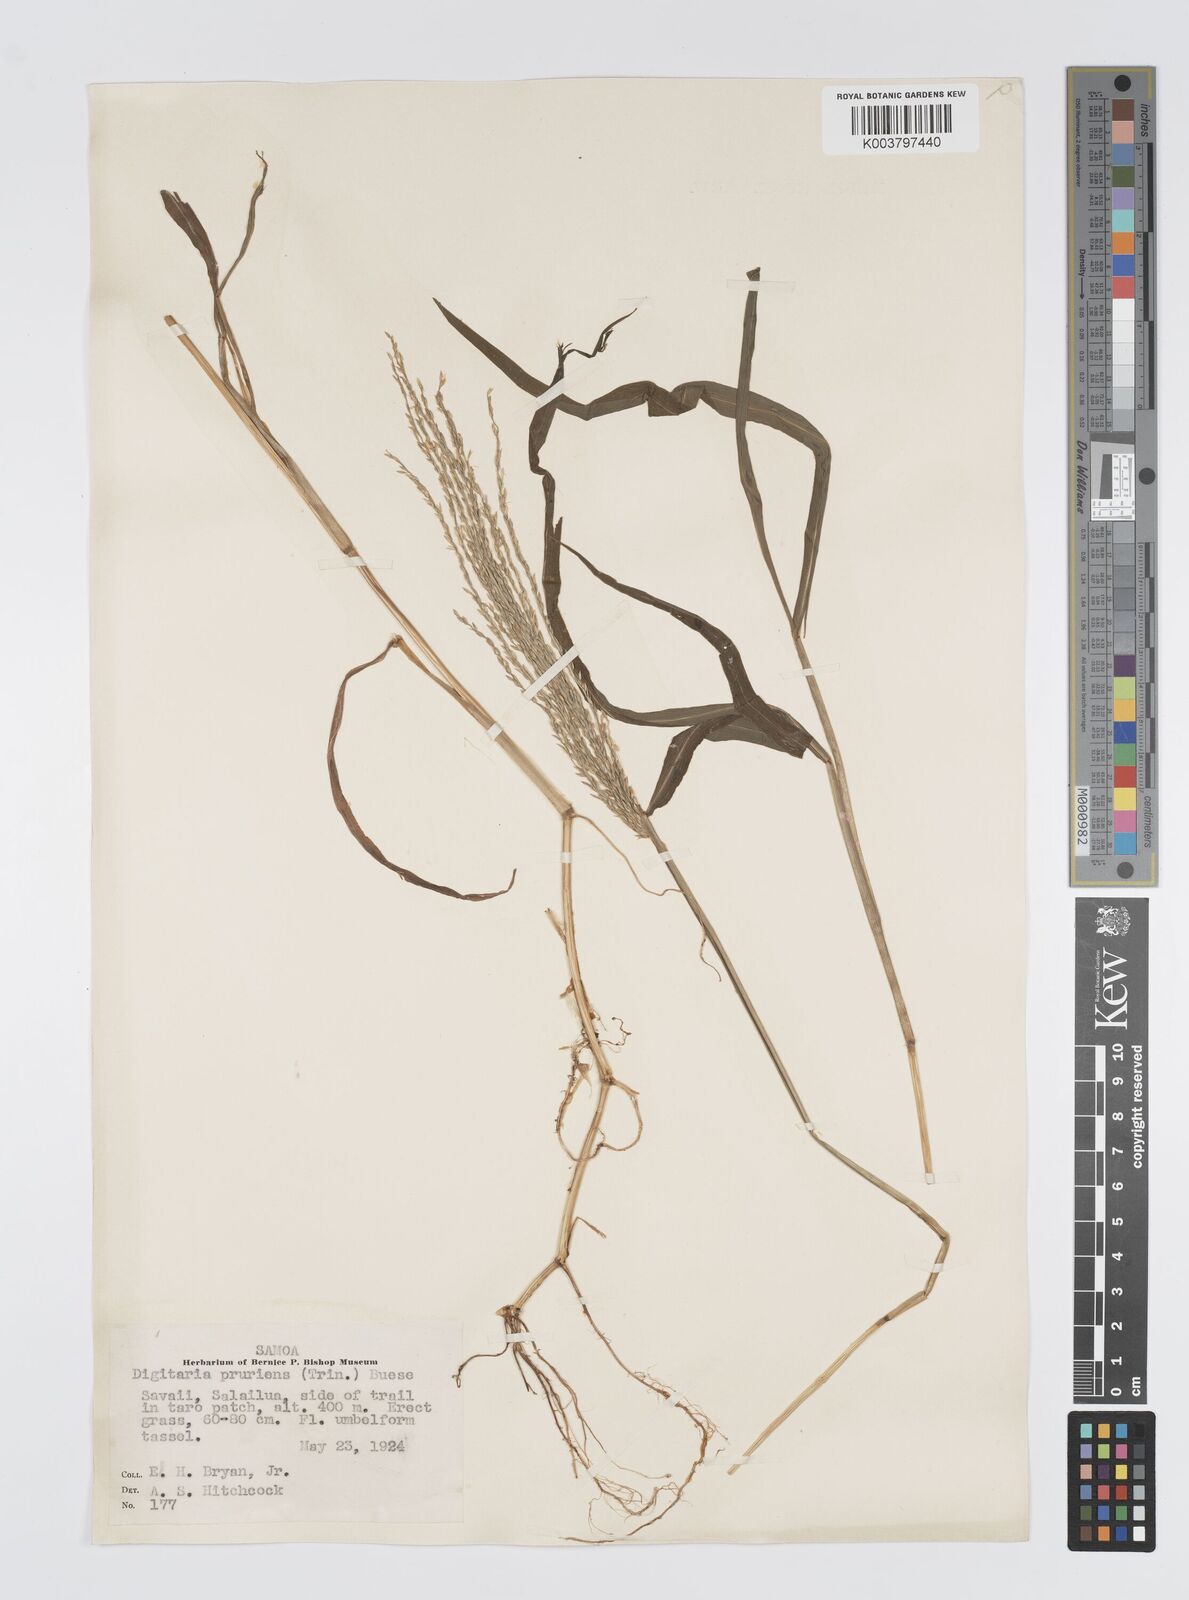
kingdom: Plantae
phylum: Tracheophyta
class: Liliopsida
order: Poales
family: Poaceae
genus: Digitaria
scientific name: Digitaria setigera
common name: East indian crabgrass
